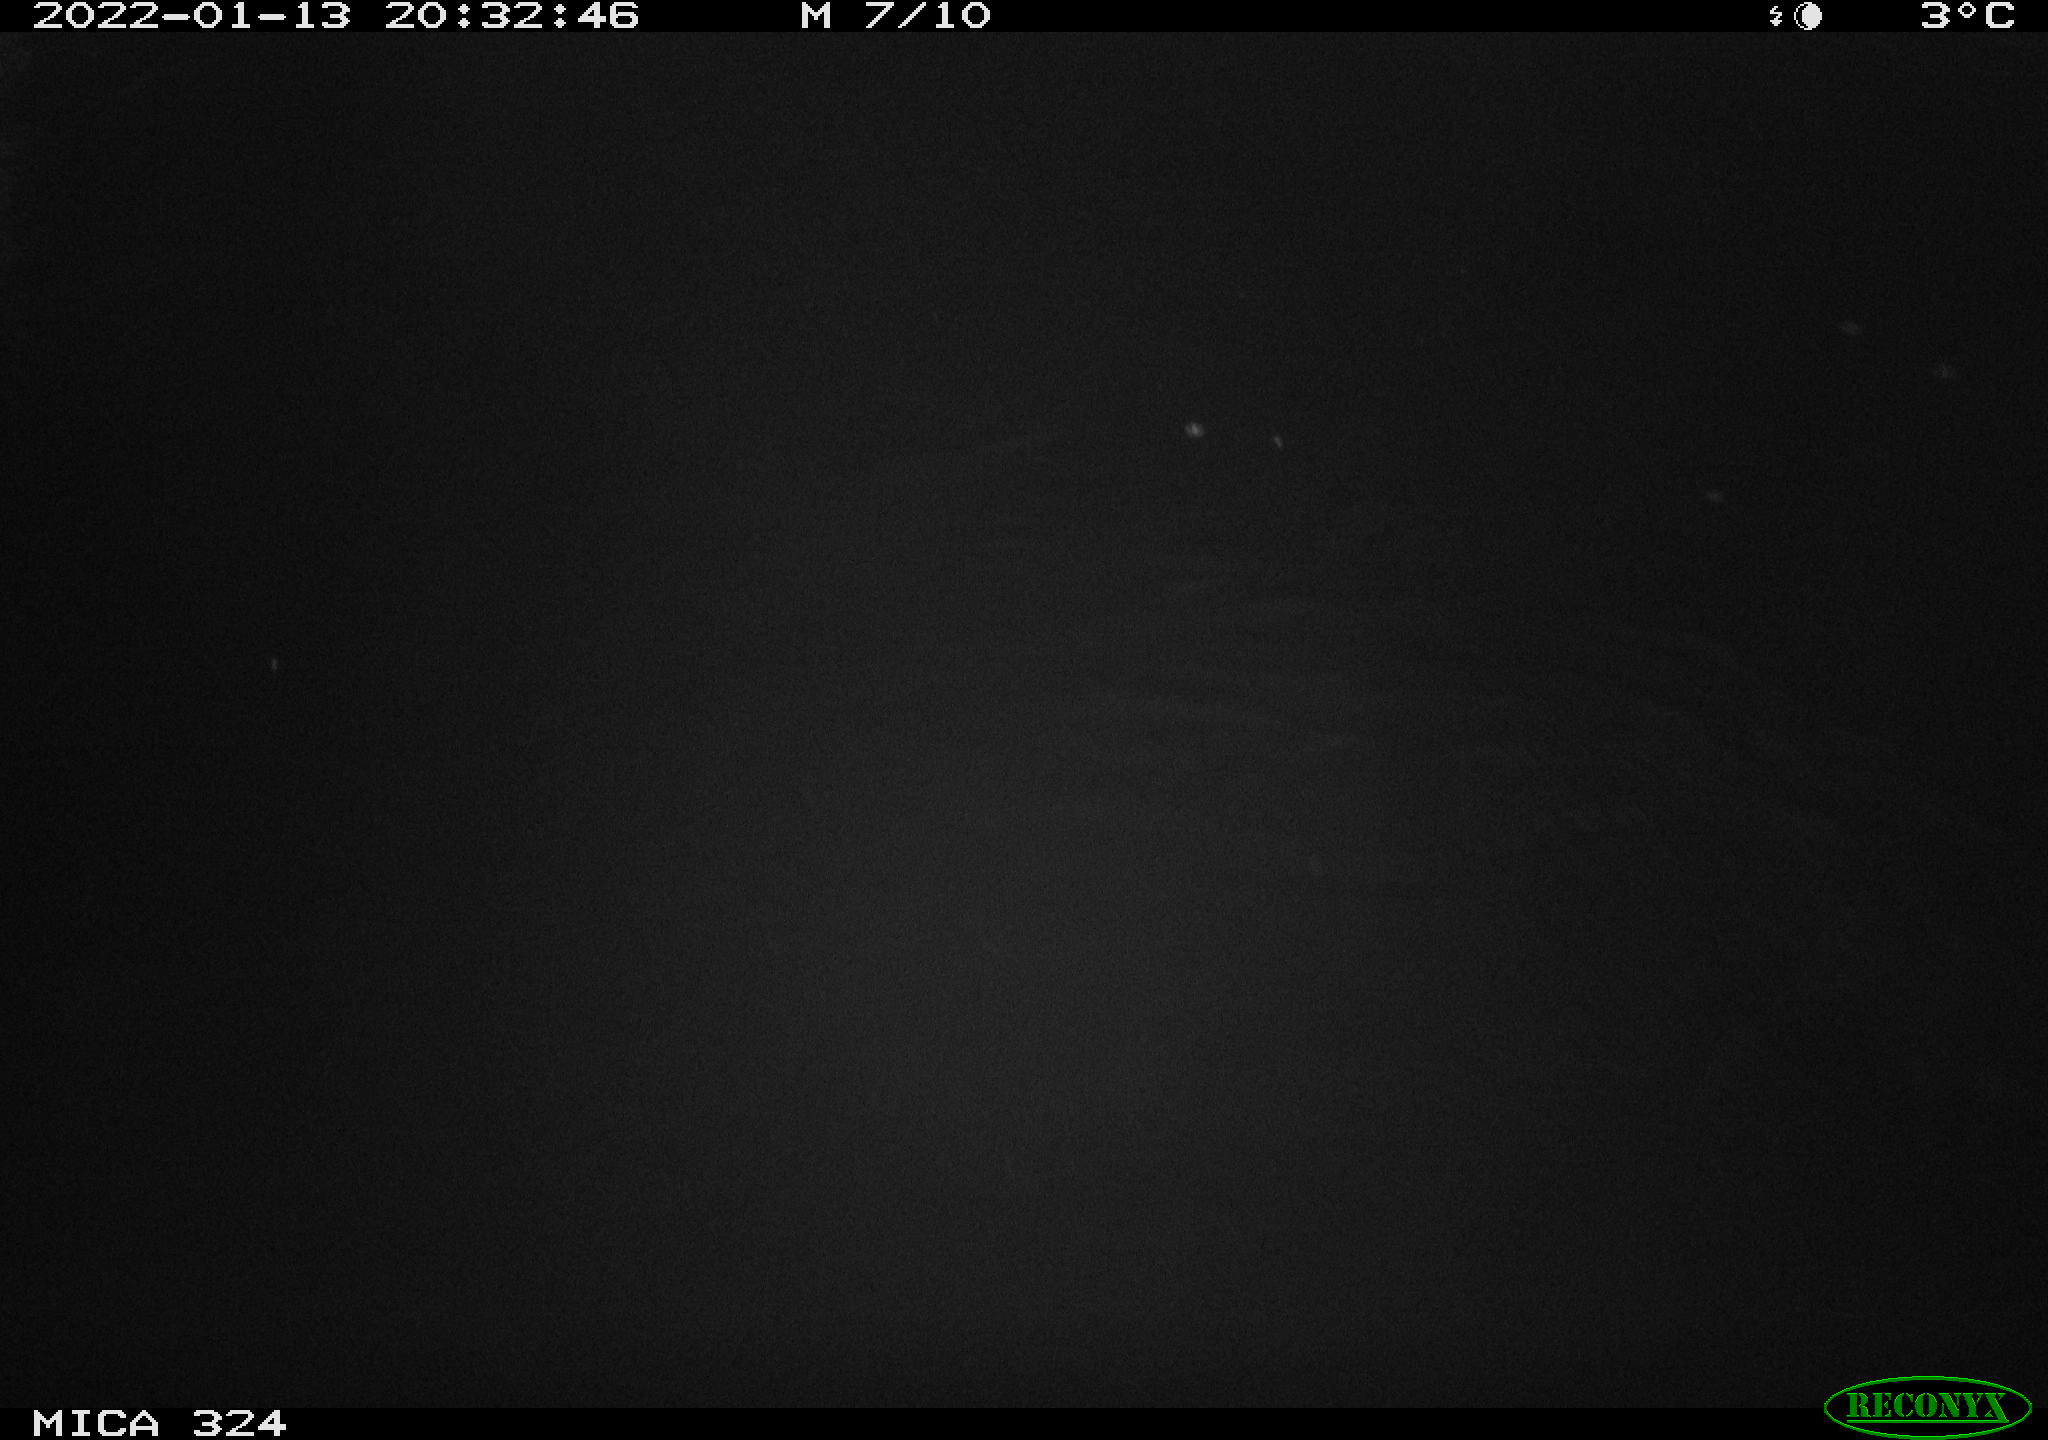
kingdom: Animalia
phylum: Chordata
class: Mammalia
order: Rodentia
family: Cricetidae
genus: Ondatra
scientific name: Ondatra zibethicus
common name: Muskrat
